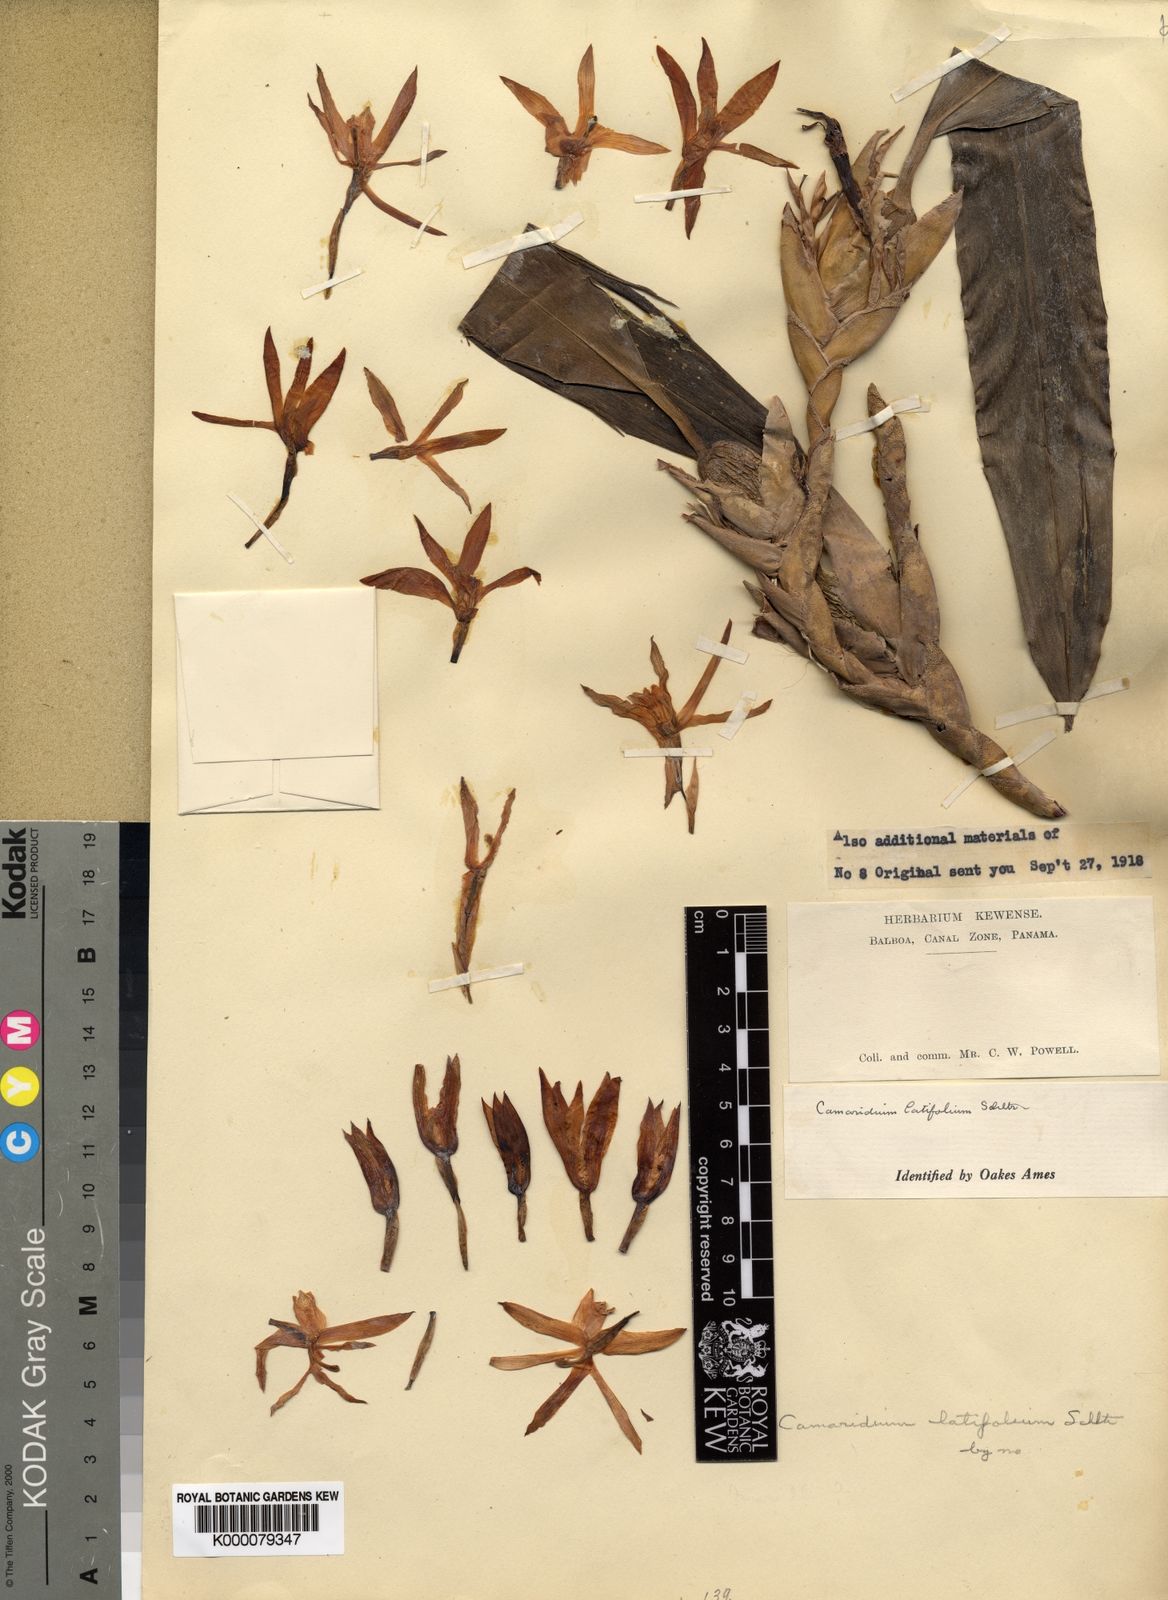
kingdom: Plantae
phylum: Tracheophyta
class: Liliopsida
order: Asparagales
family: Orchidaceae
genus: Maxillaria
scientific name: Maxillaria planicola
